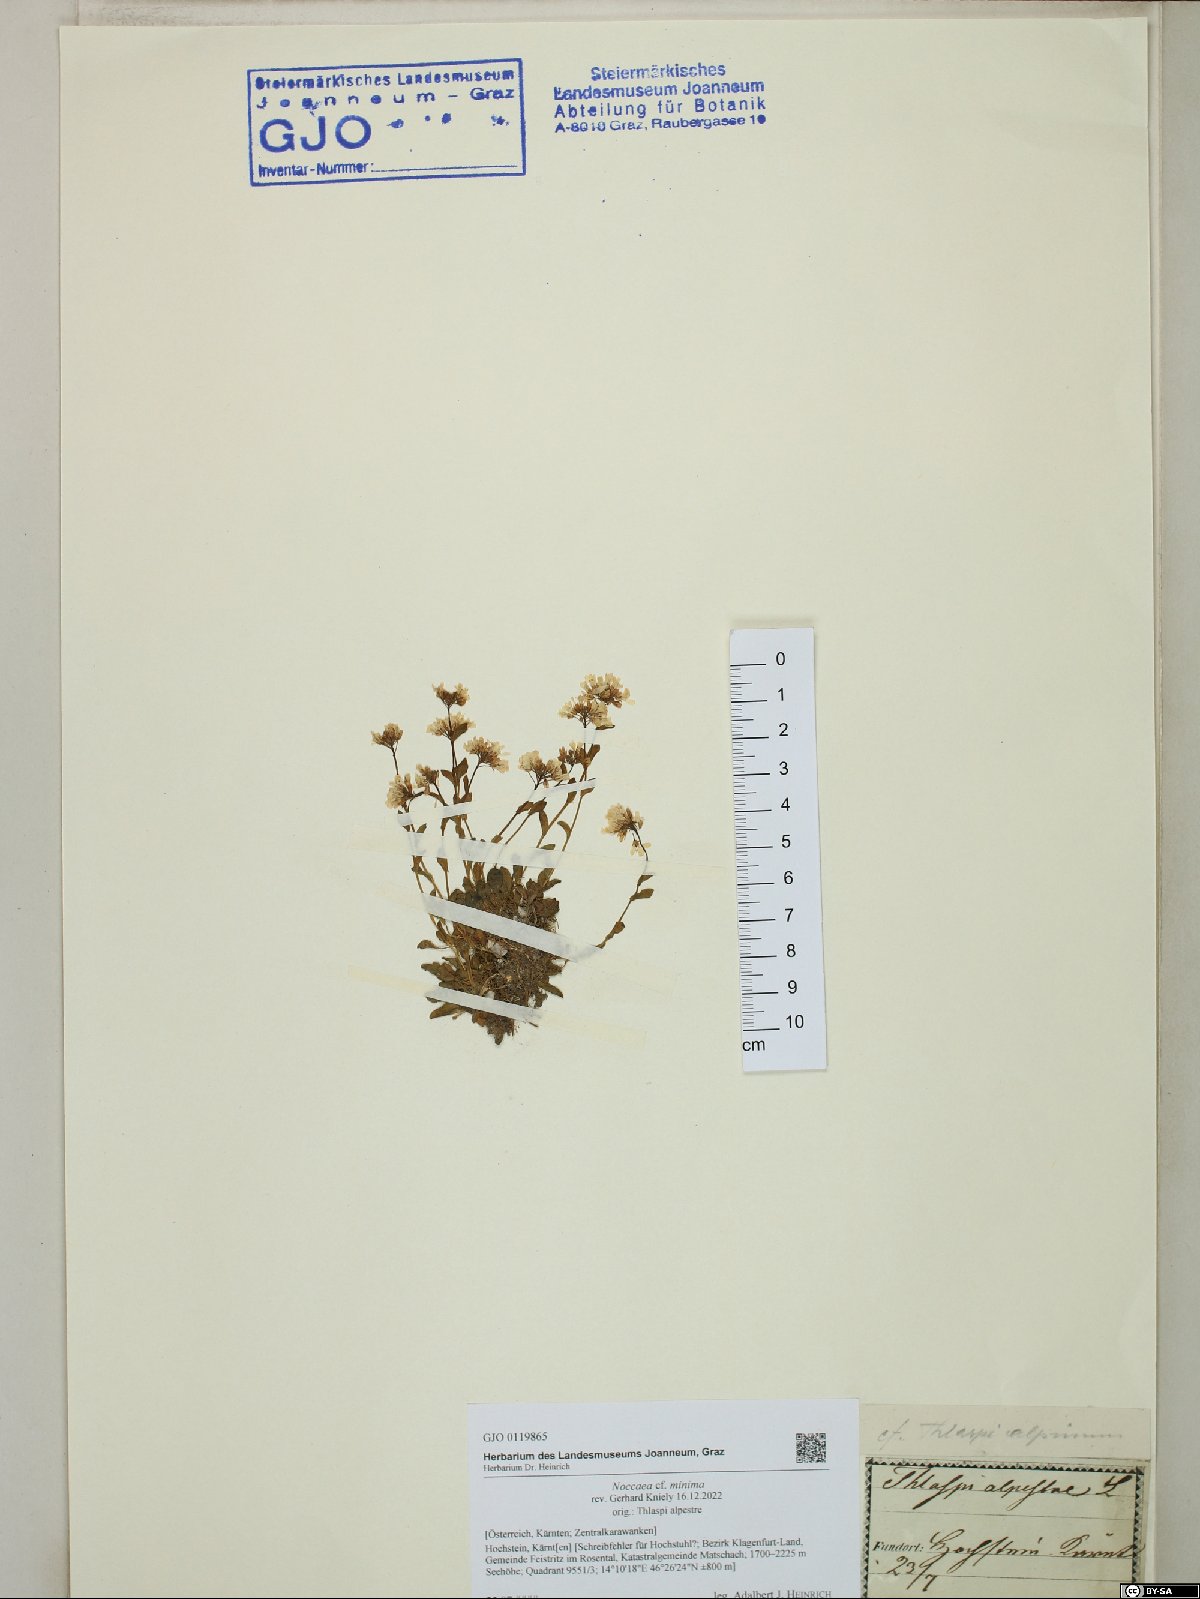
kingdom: Plantae
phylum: Tracheophyta
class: Magnoliopsida
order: Brassicales
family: Brassicaceae
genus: Noccaea
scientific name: Noccaea minima
